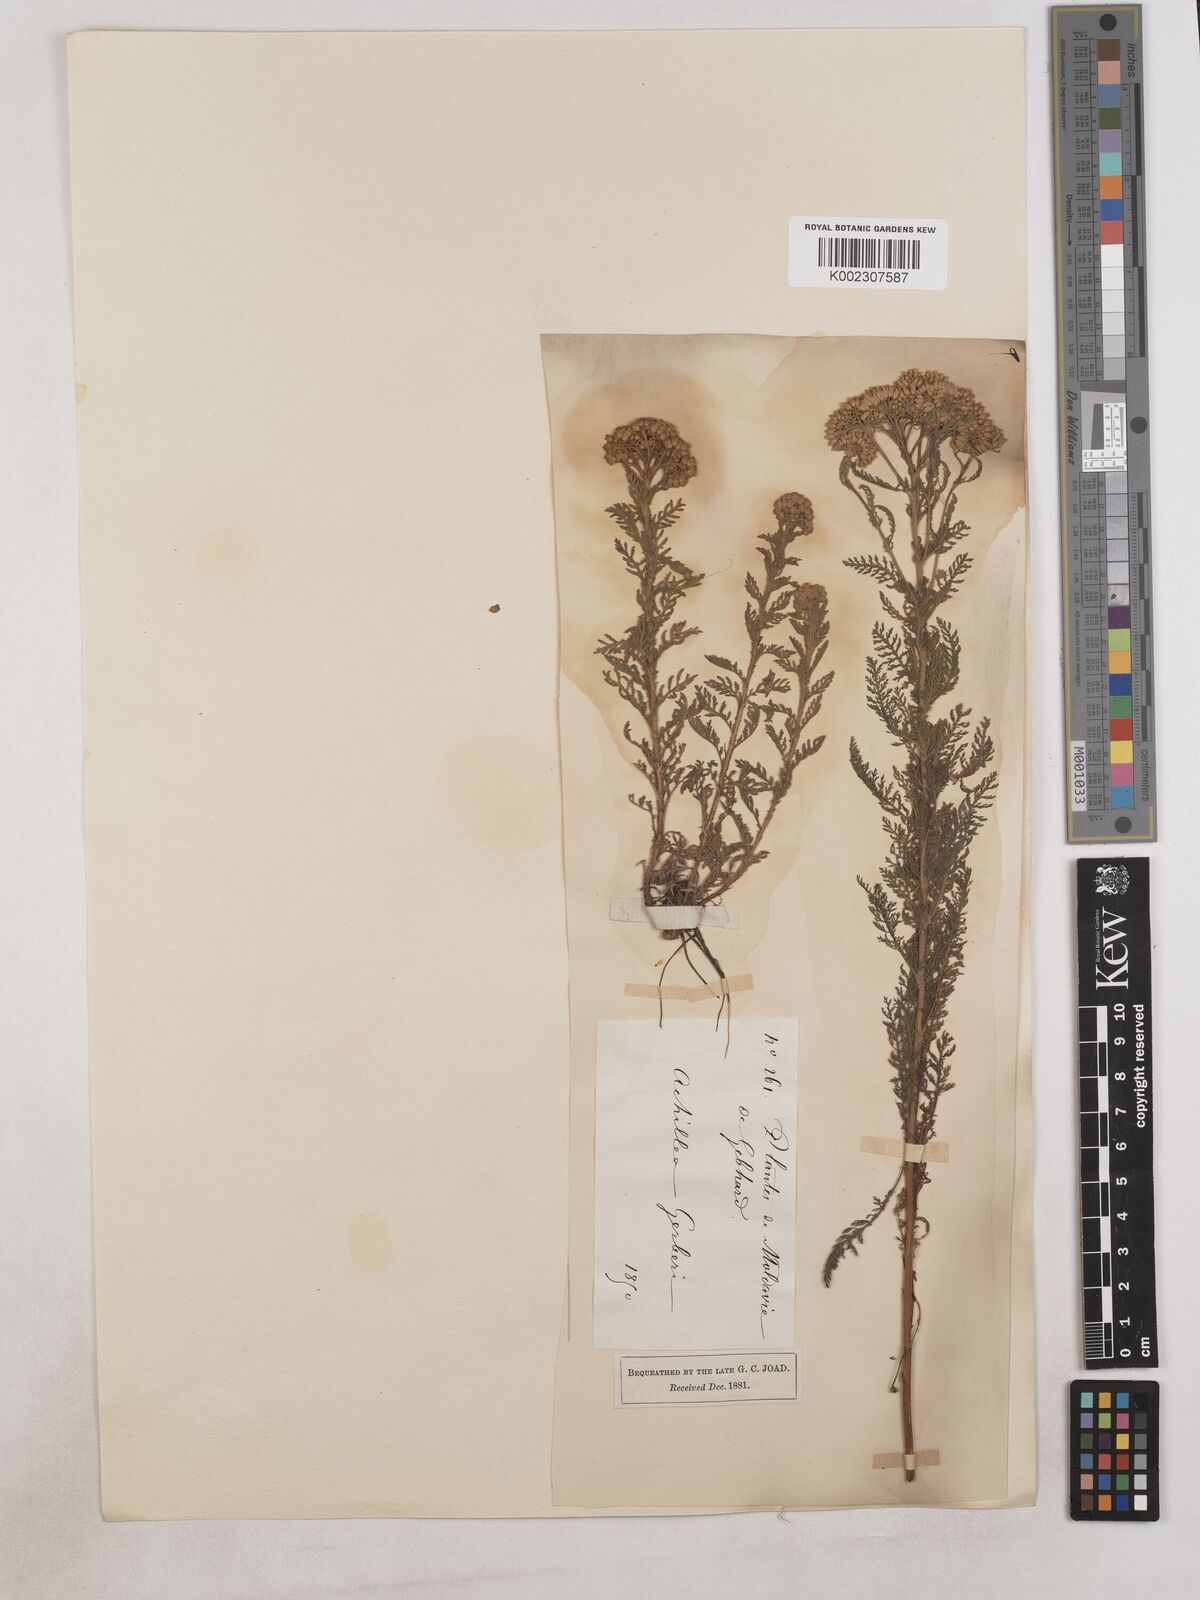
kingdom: Plantae
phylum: Tracheophyta
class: Magnoliopsida
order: Asterales
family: Asteraceae
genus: Achillea
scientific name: Achillea
